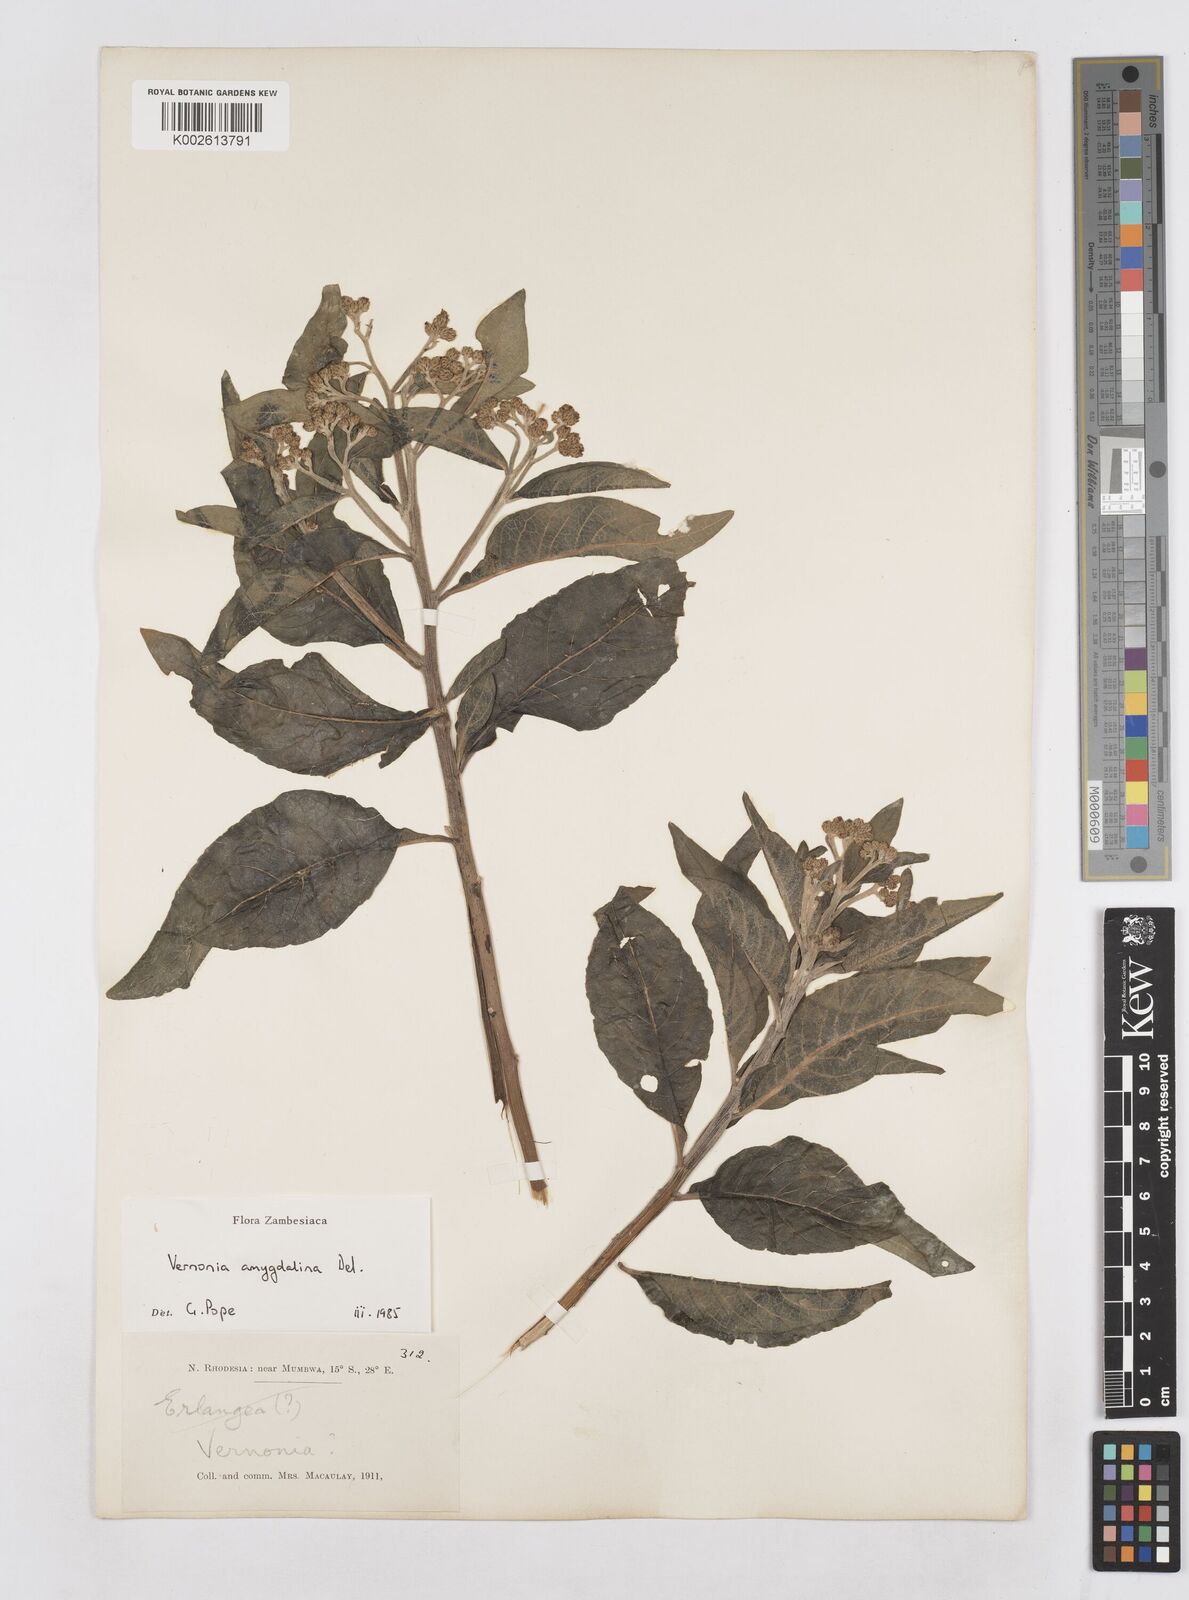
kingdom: Plantae
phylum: Tracheophyta
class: Magnoliopsida
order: Asterales
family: Asteraceae
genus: Gymnanthemum
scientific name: Gymnanthemum amygdalinum
